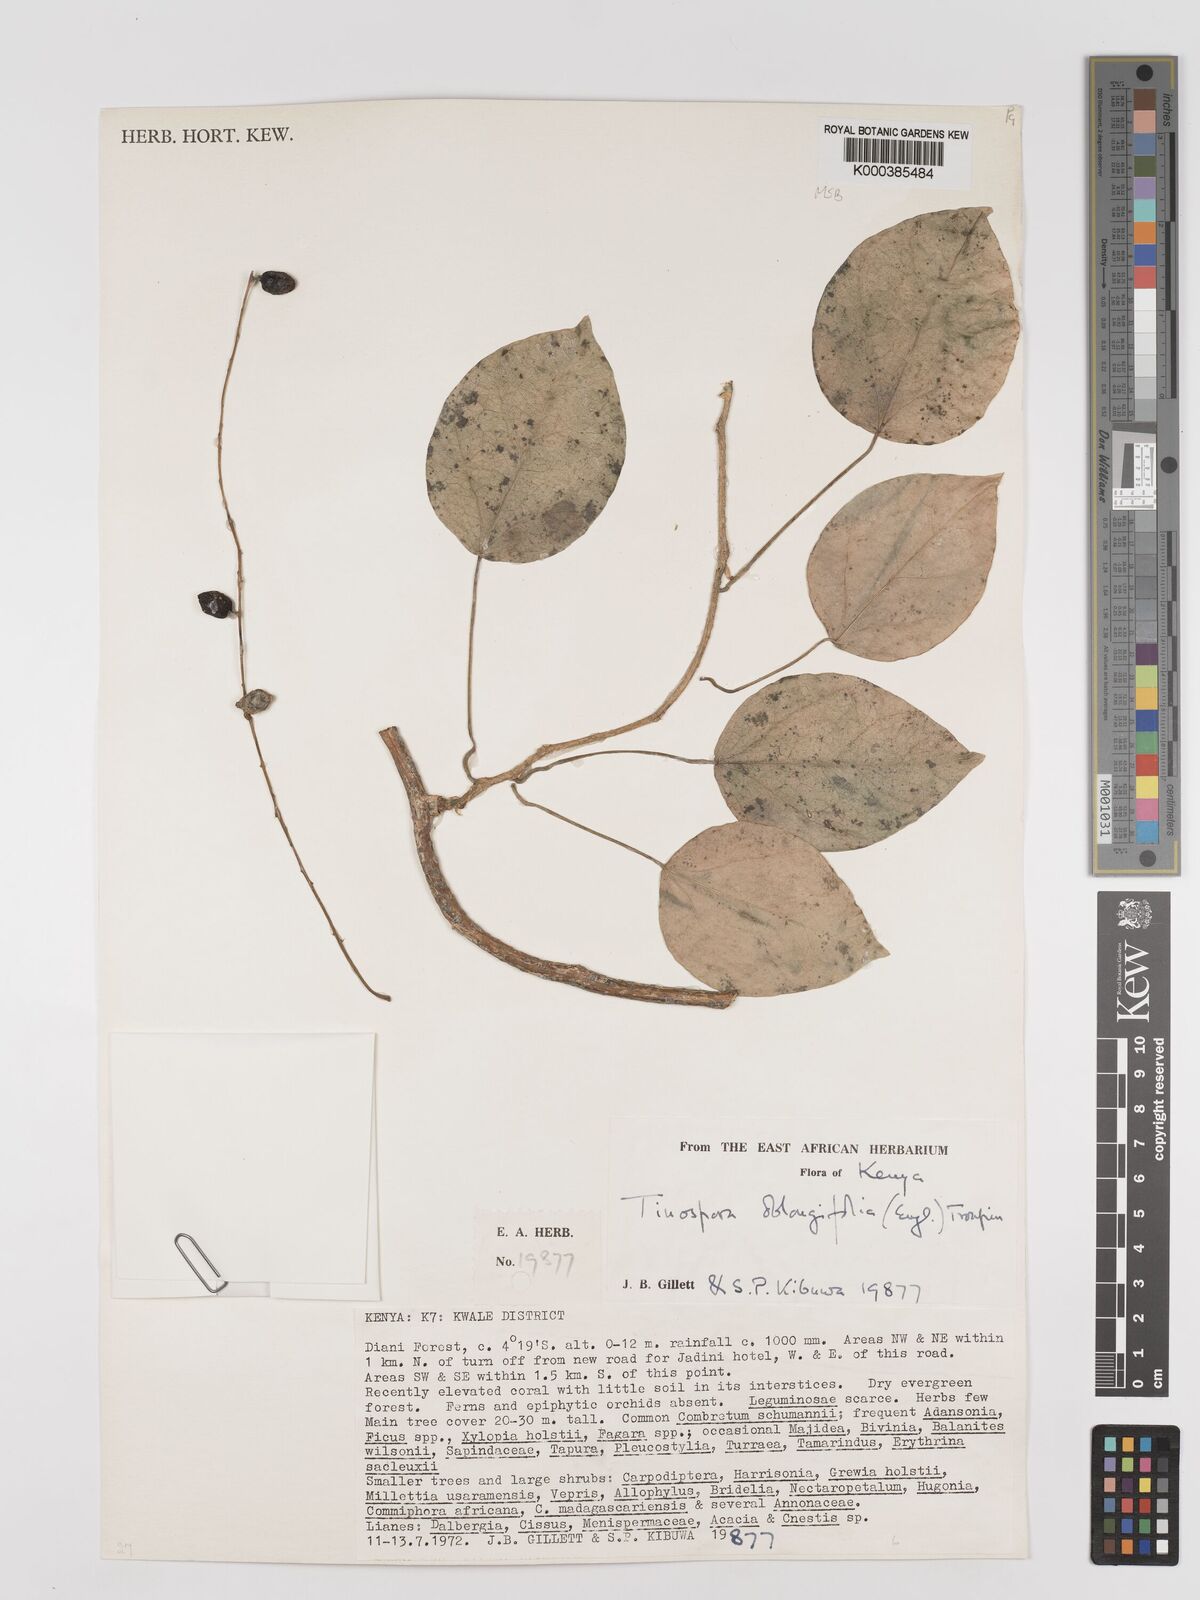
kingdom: Plantae
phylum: Tracheophyta
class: Magnoliopsida
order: Ranunculales
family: Menispermaceae
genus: Tinospora
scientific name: Tinospora oblongifolia
